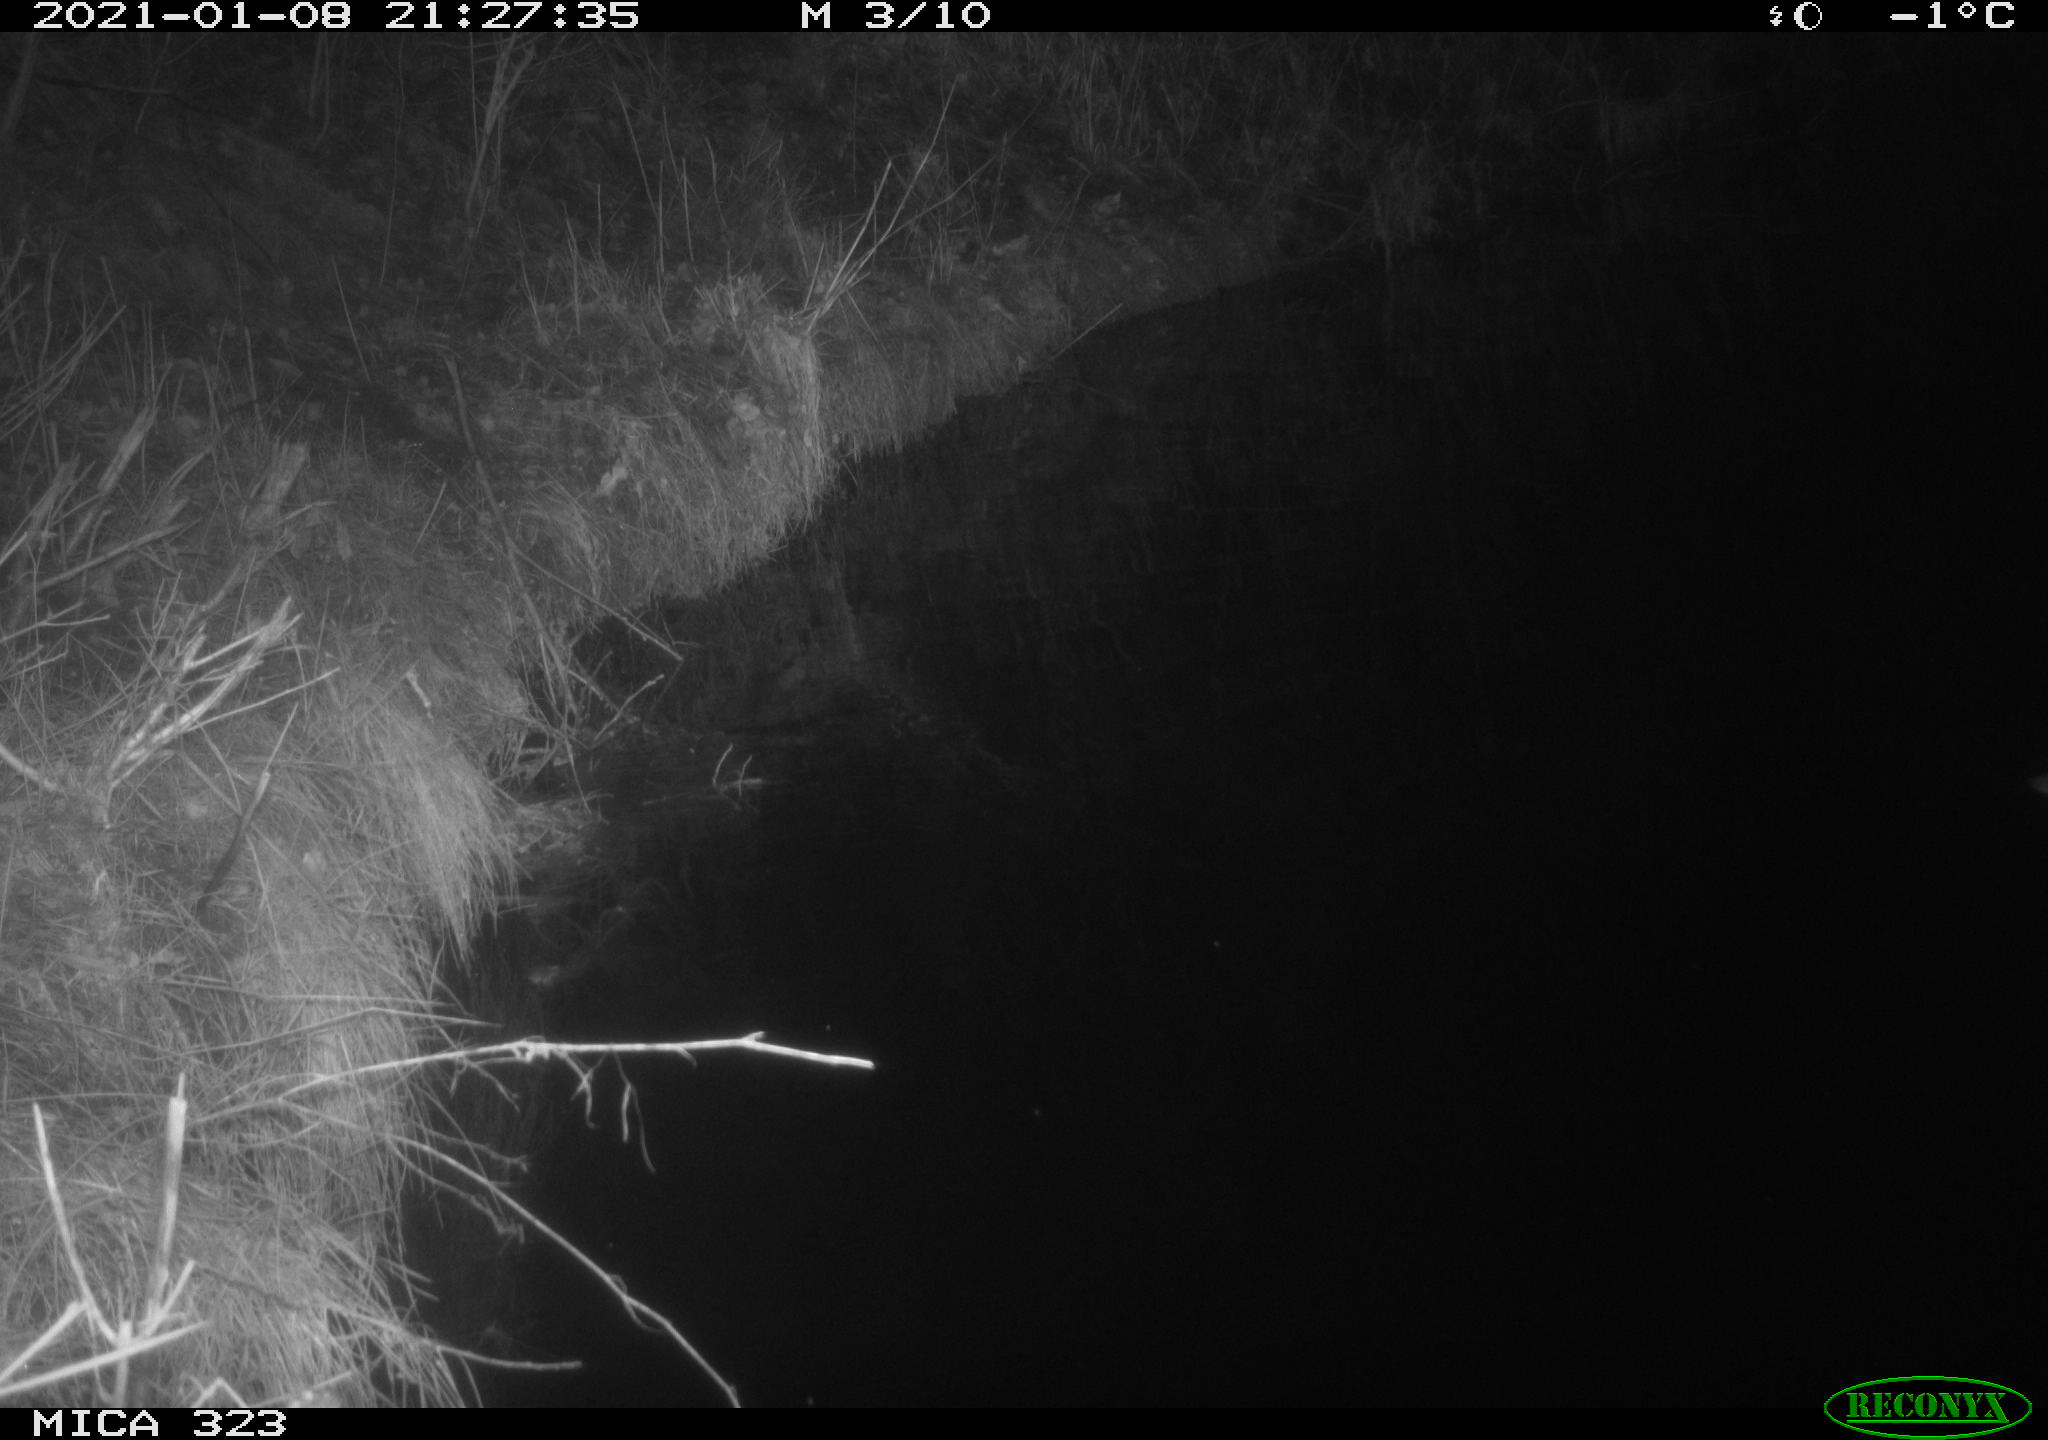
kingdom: Animalia
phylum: Chordata
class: Aves
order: Anseriformes
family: Anatidae
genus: Anas
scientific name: Anas platyrhynchos
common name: Mallard
